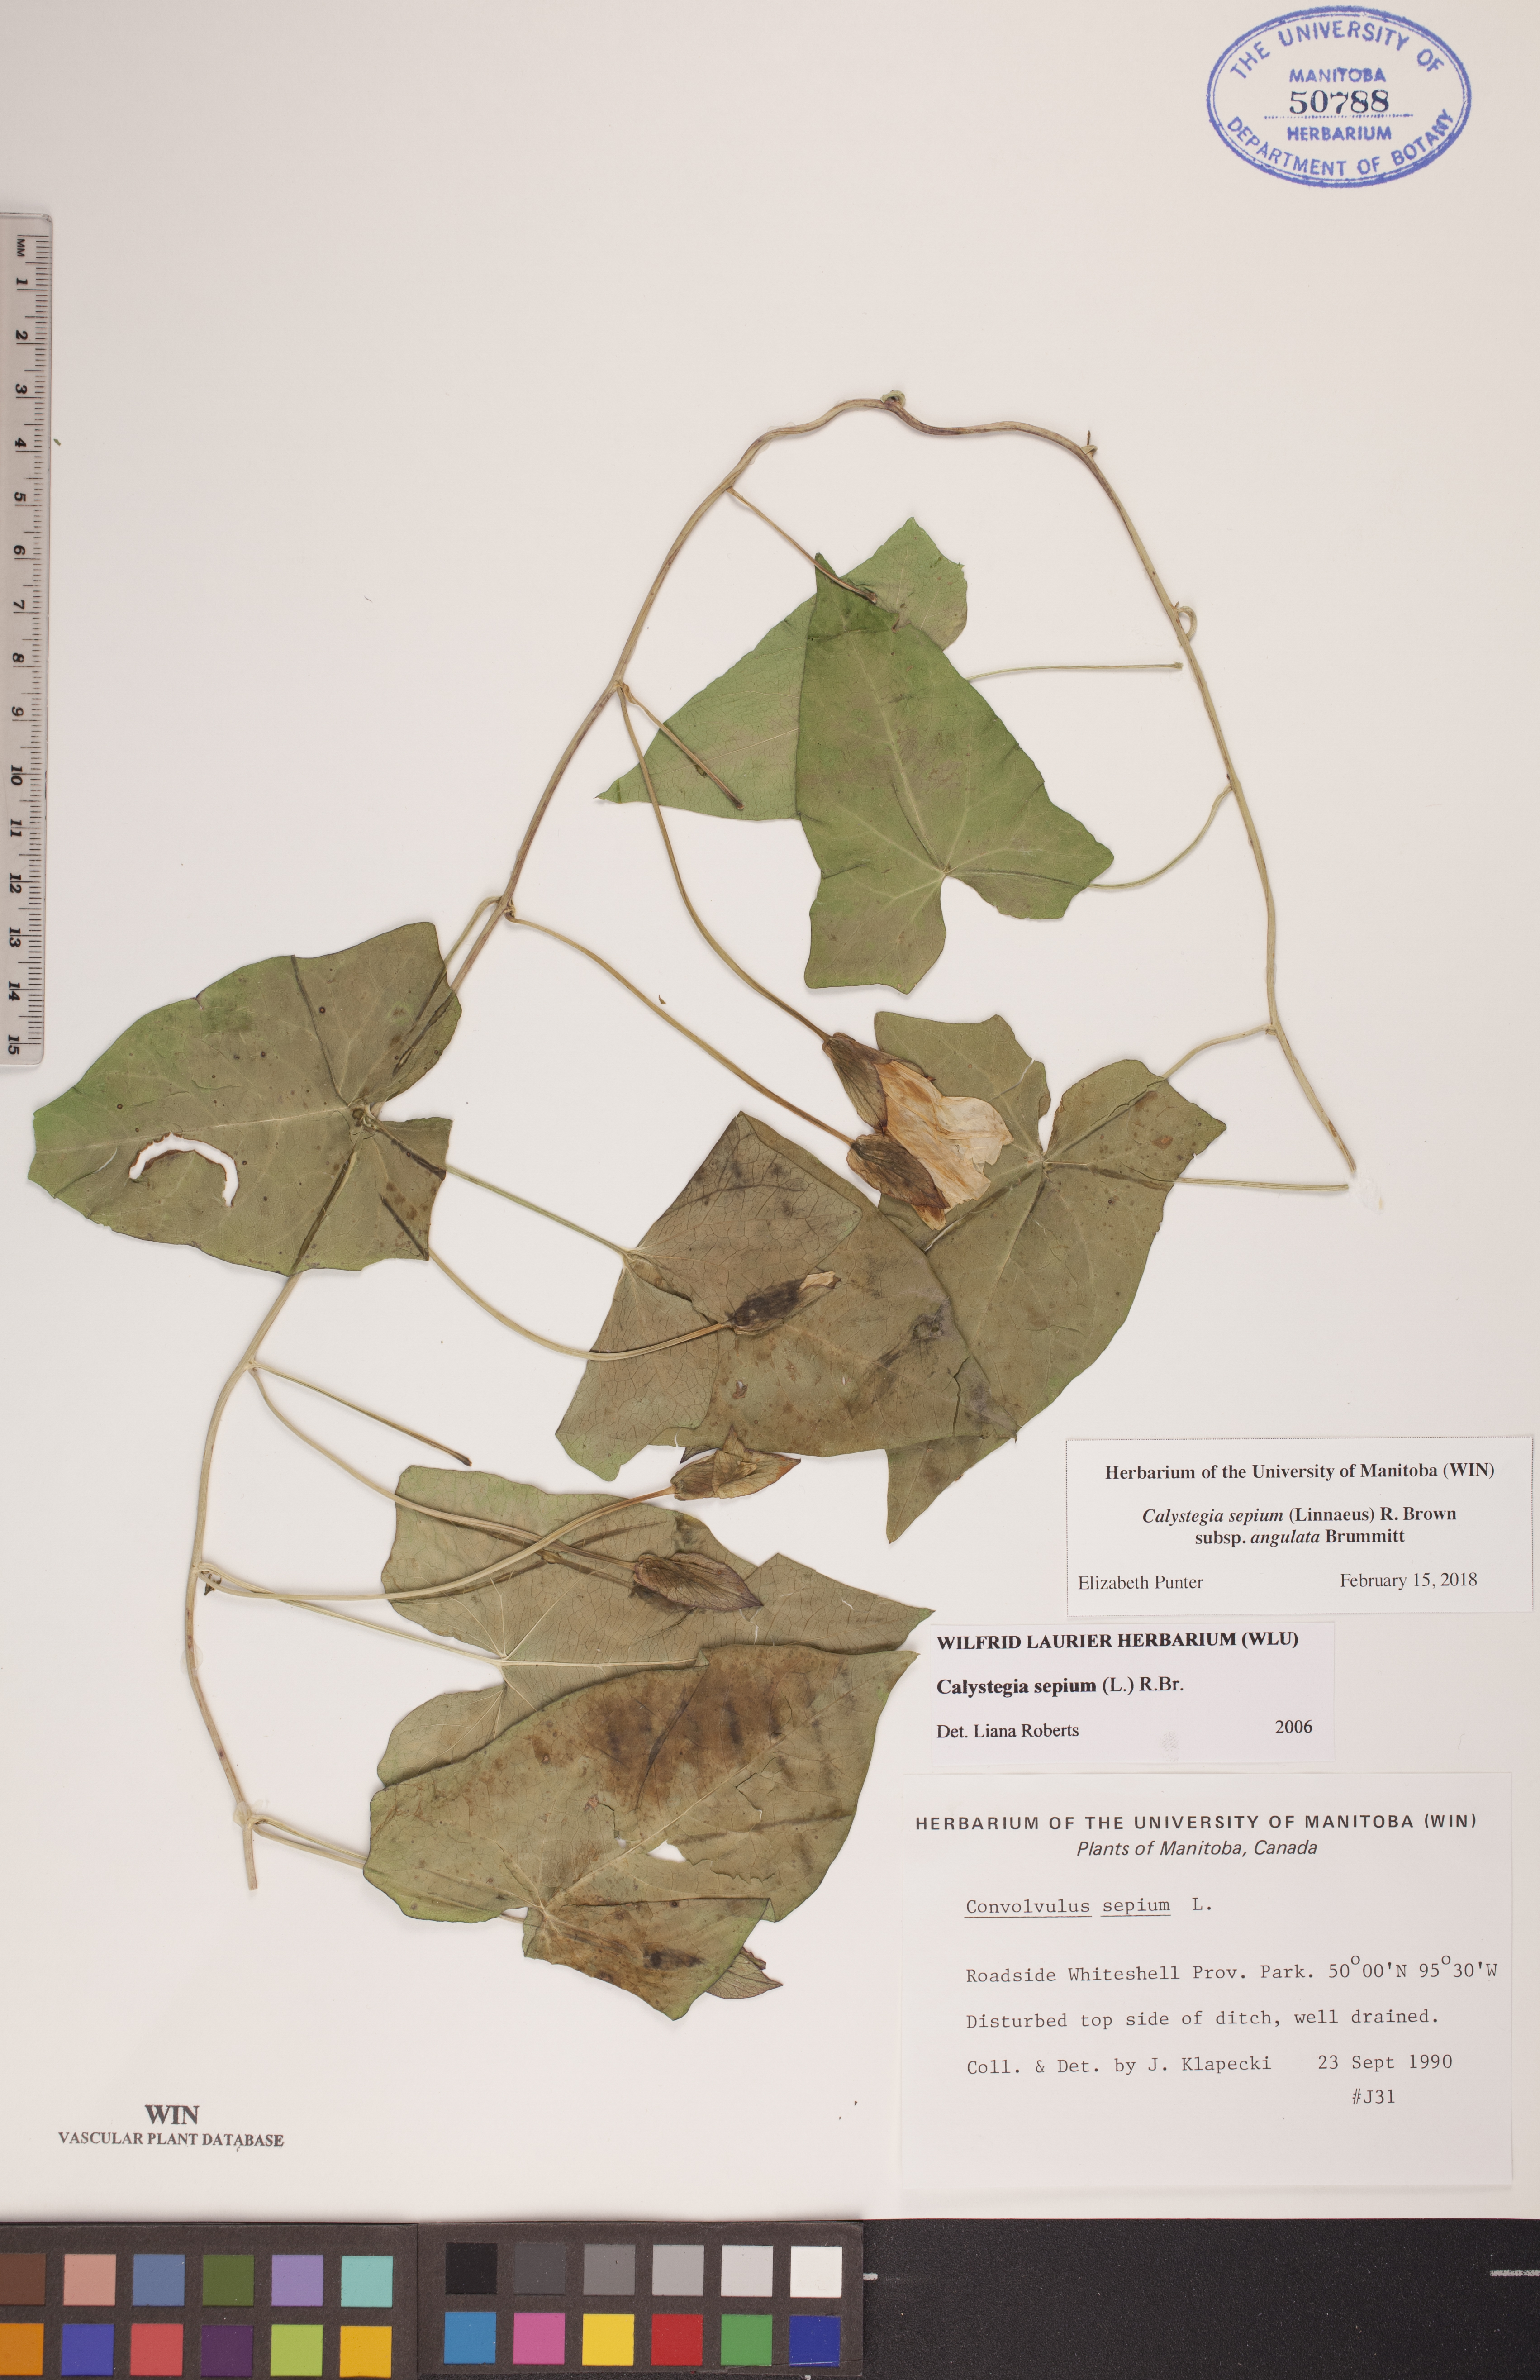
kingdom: Plantae
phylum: Tracheophyta
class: Magnoliopsida
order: Solanales
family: Convolvulaceae
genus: Calystegia
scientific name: Calystegia sepium
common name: Hedge bindweed
